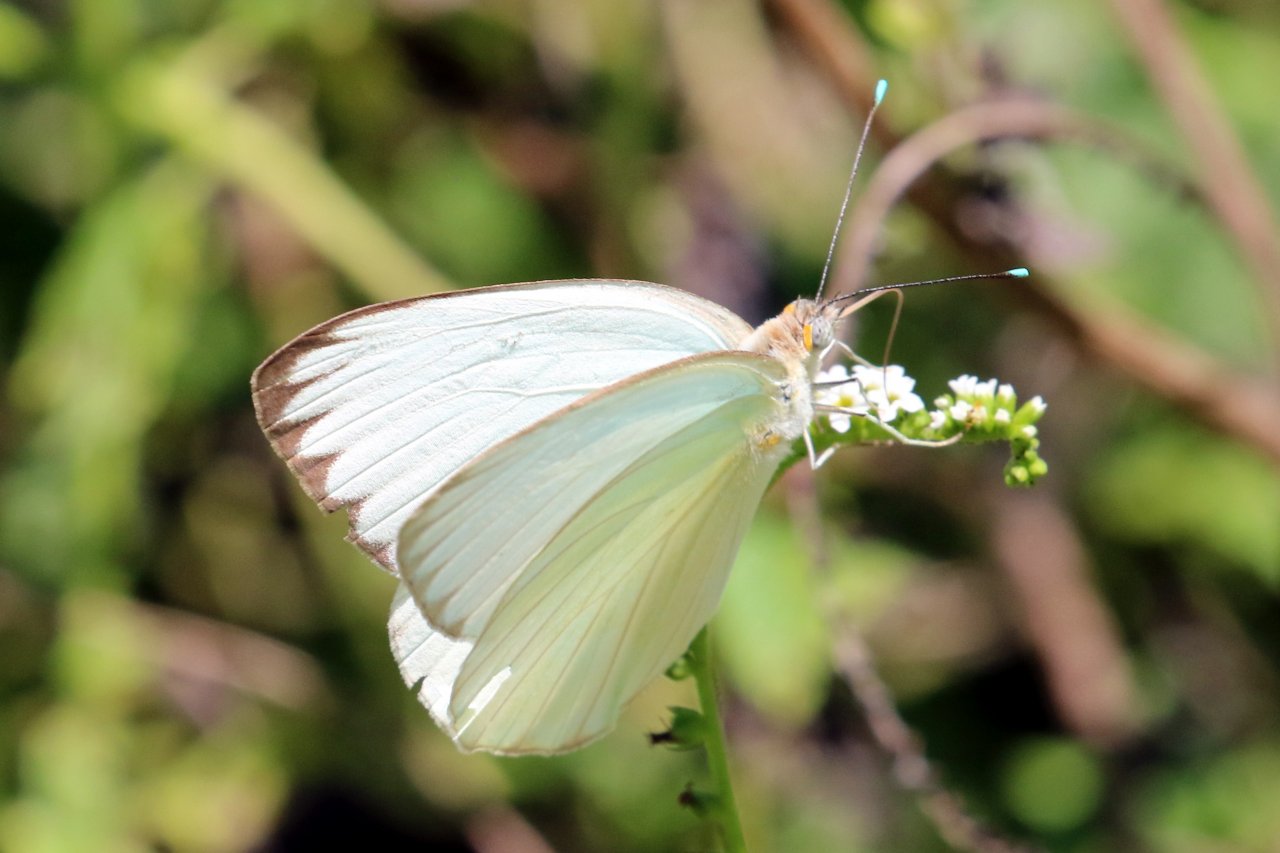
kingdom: Animalia
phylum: Arthropoda
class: Insecta
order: Lepidoptera
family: Pieridae
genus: Ascia
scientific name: Ascia monuste
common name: Great Southern White
